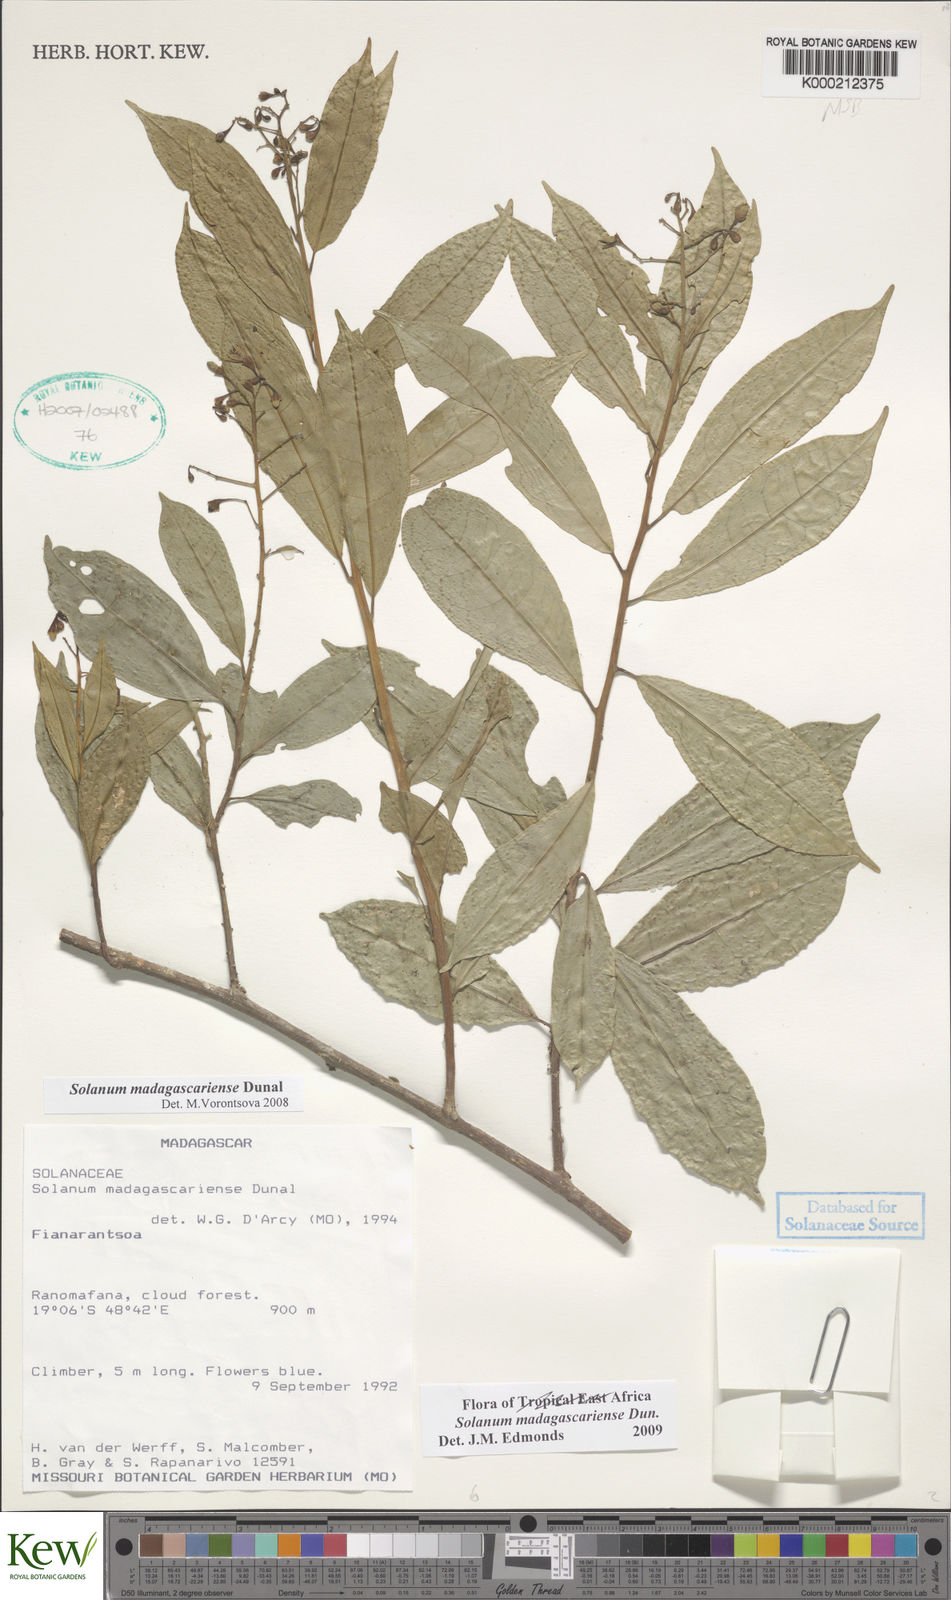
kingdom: Plantae
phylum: Tracheophyta
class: Magnoliopsida
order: Solanales
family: Solanaceae
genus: Solanum
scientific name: Solanum madagascariense
